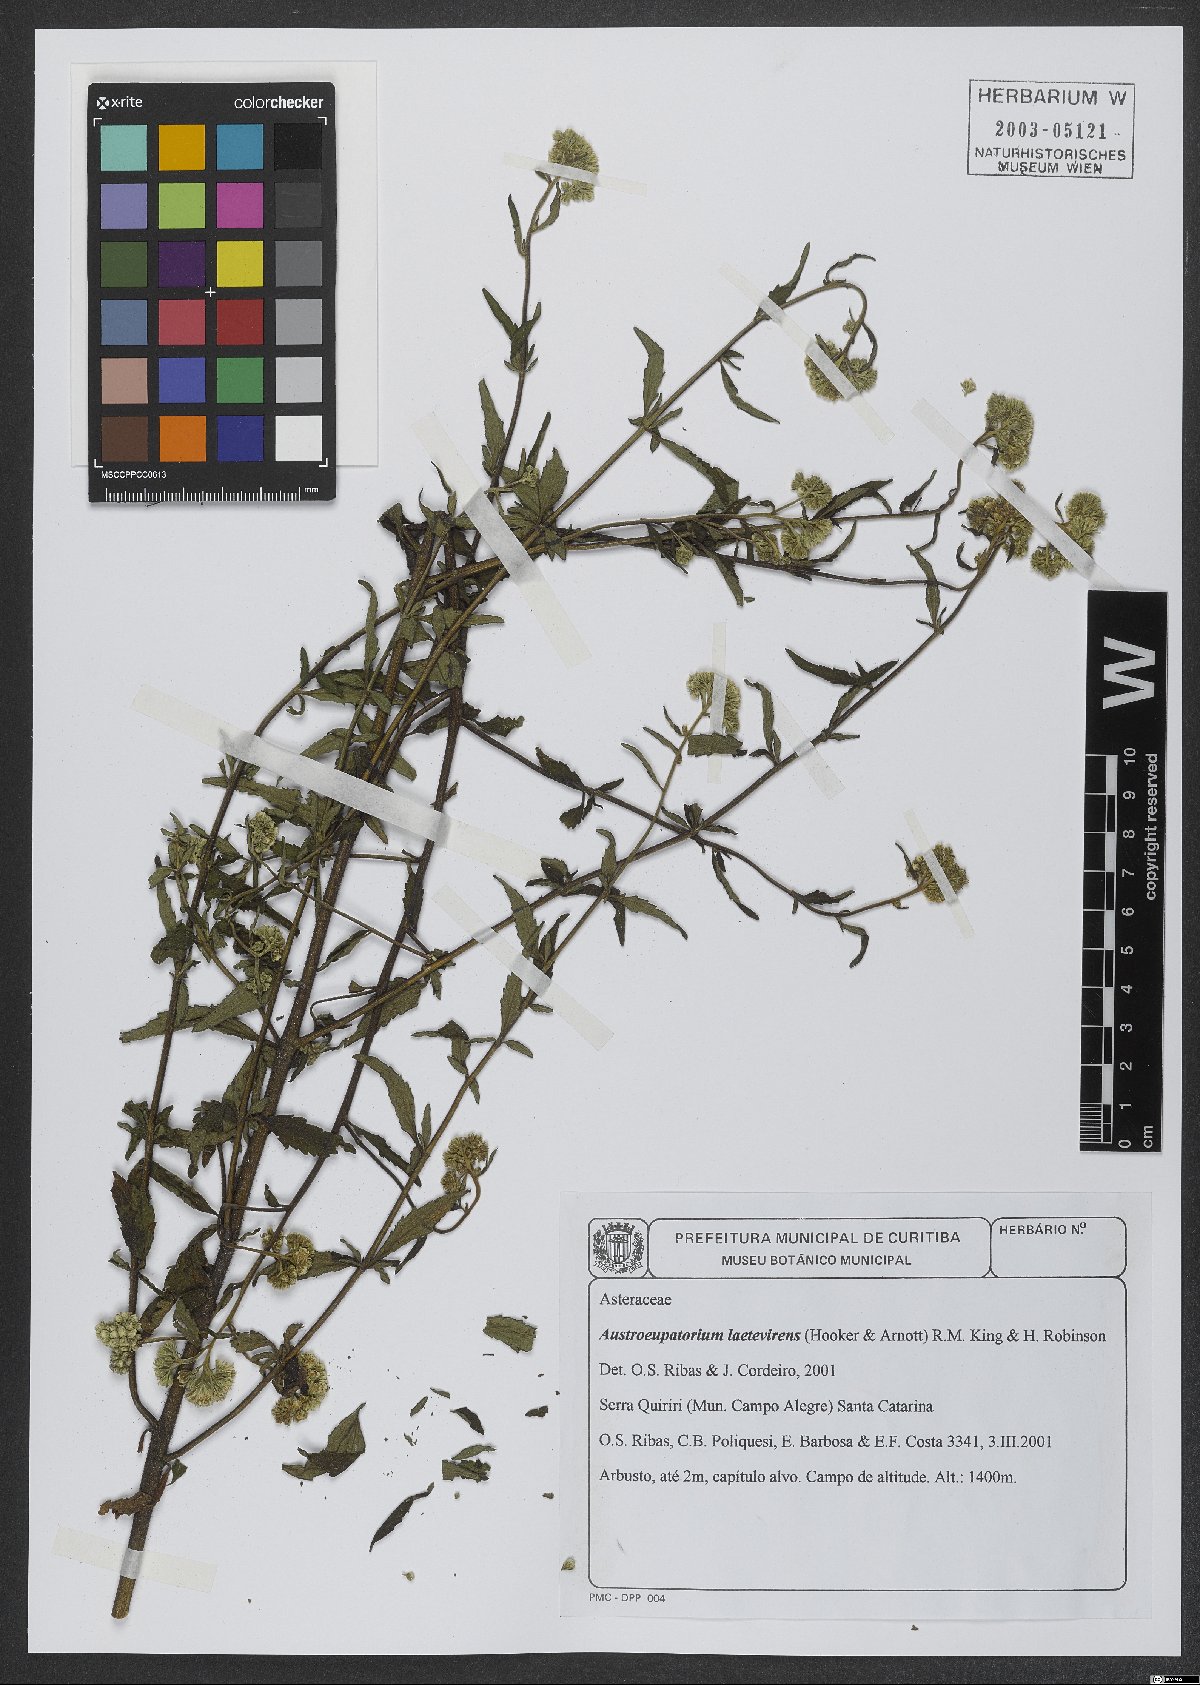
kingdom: Plantae
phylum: Tracheophyta
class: Magnoliopsida
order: Asterales
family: Asteraceae
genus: Austroeupatorium
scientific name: Austroeupatorium laetevirens
